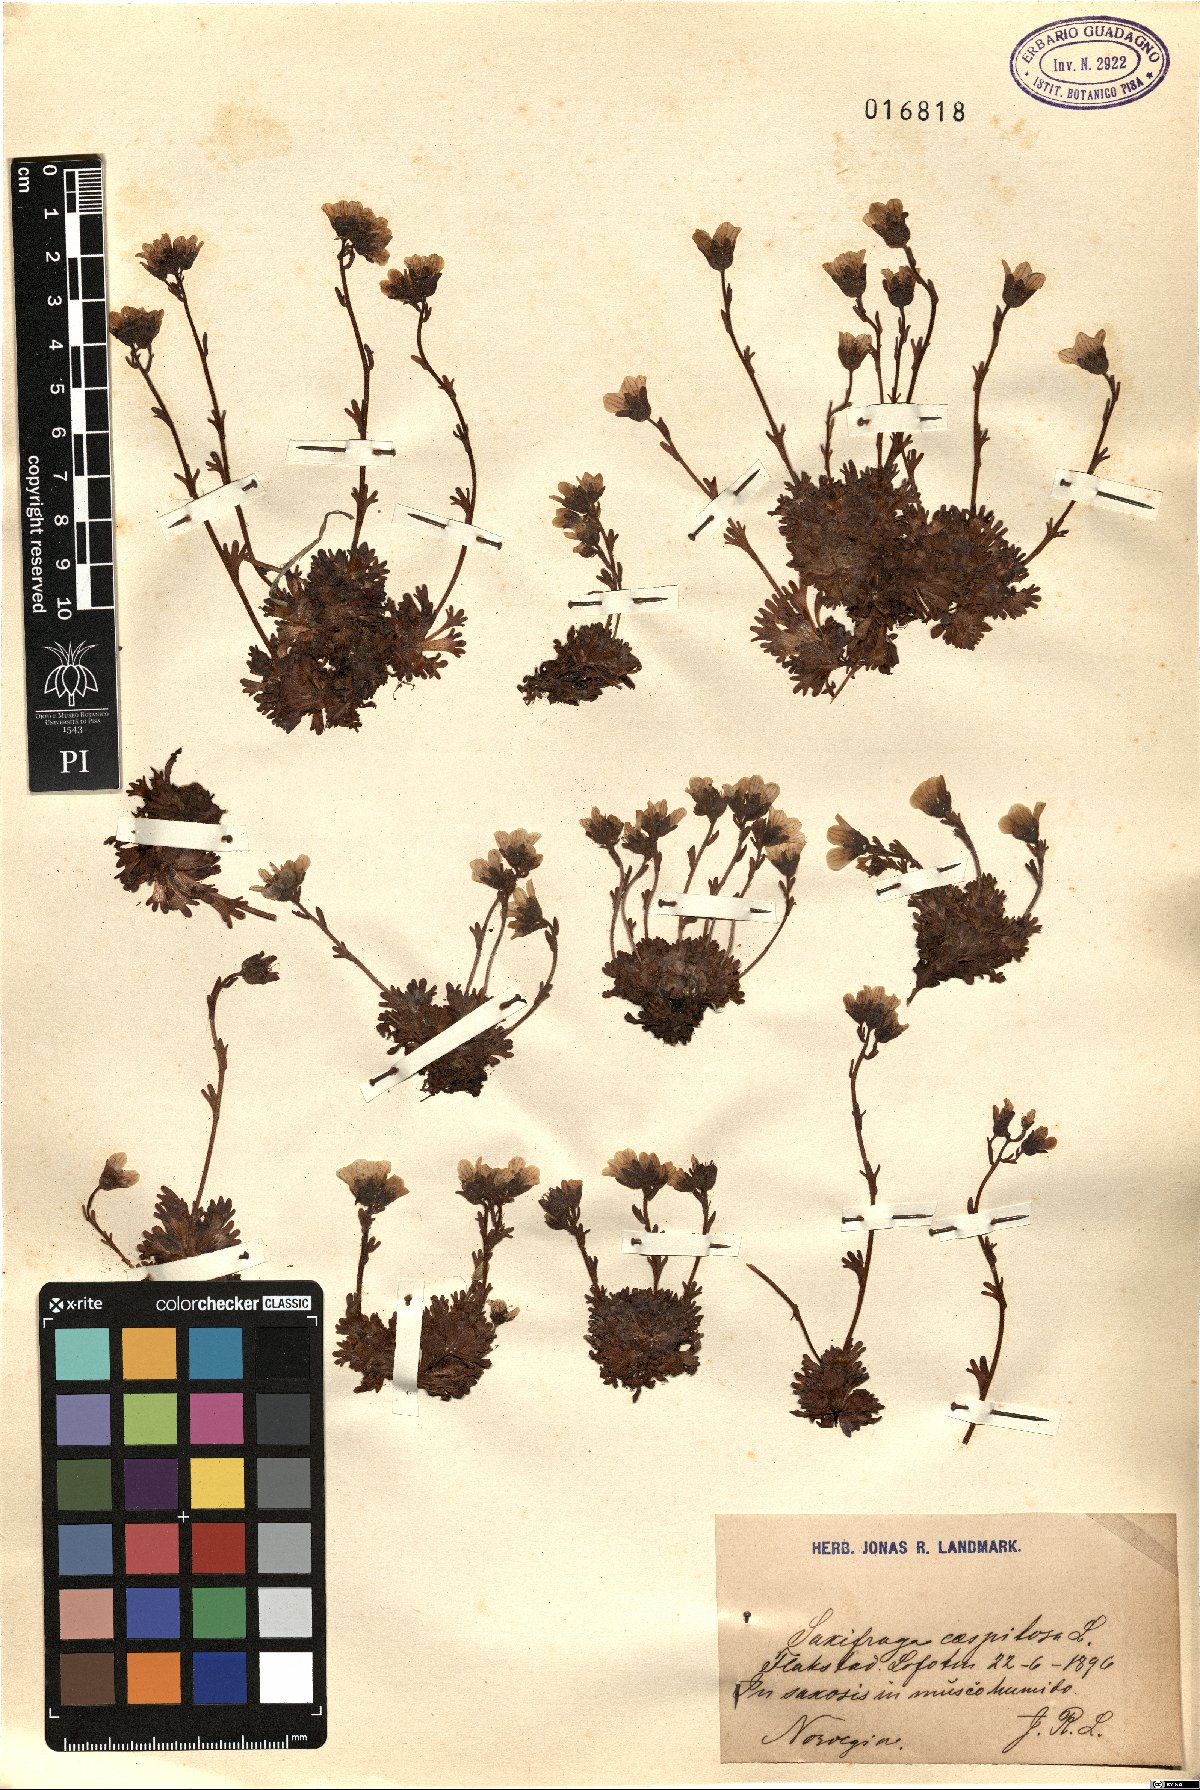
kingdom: Plantae
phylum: Tracheophyta
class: Magnoliopsida
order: Saxifragales
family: Saxifragaceae
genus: Saxifraga
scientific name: Saxifraga cespitosa
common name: Tufted saxifrage
